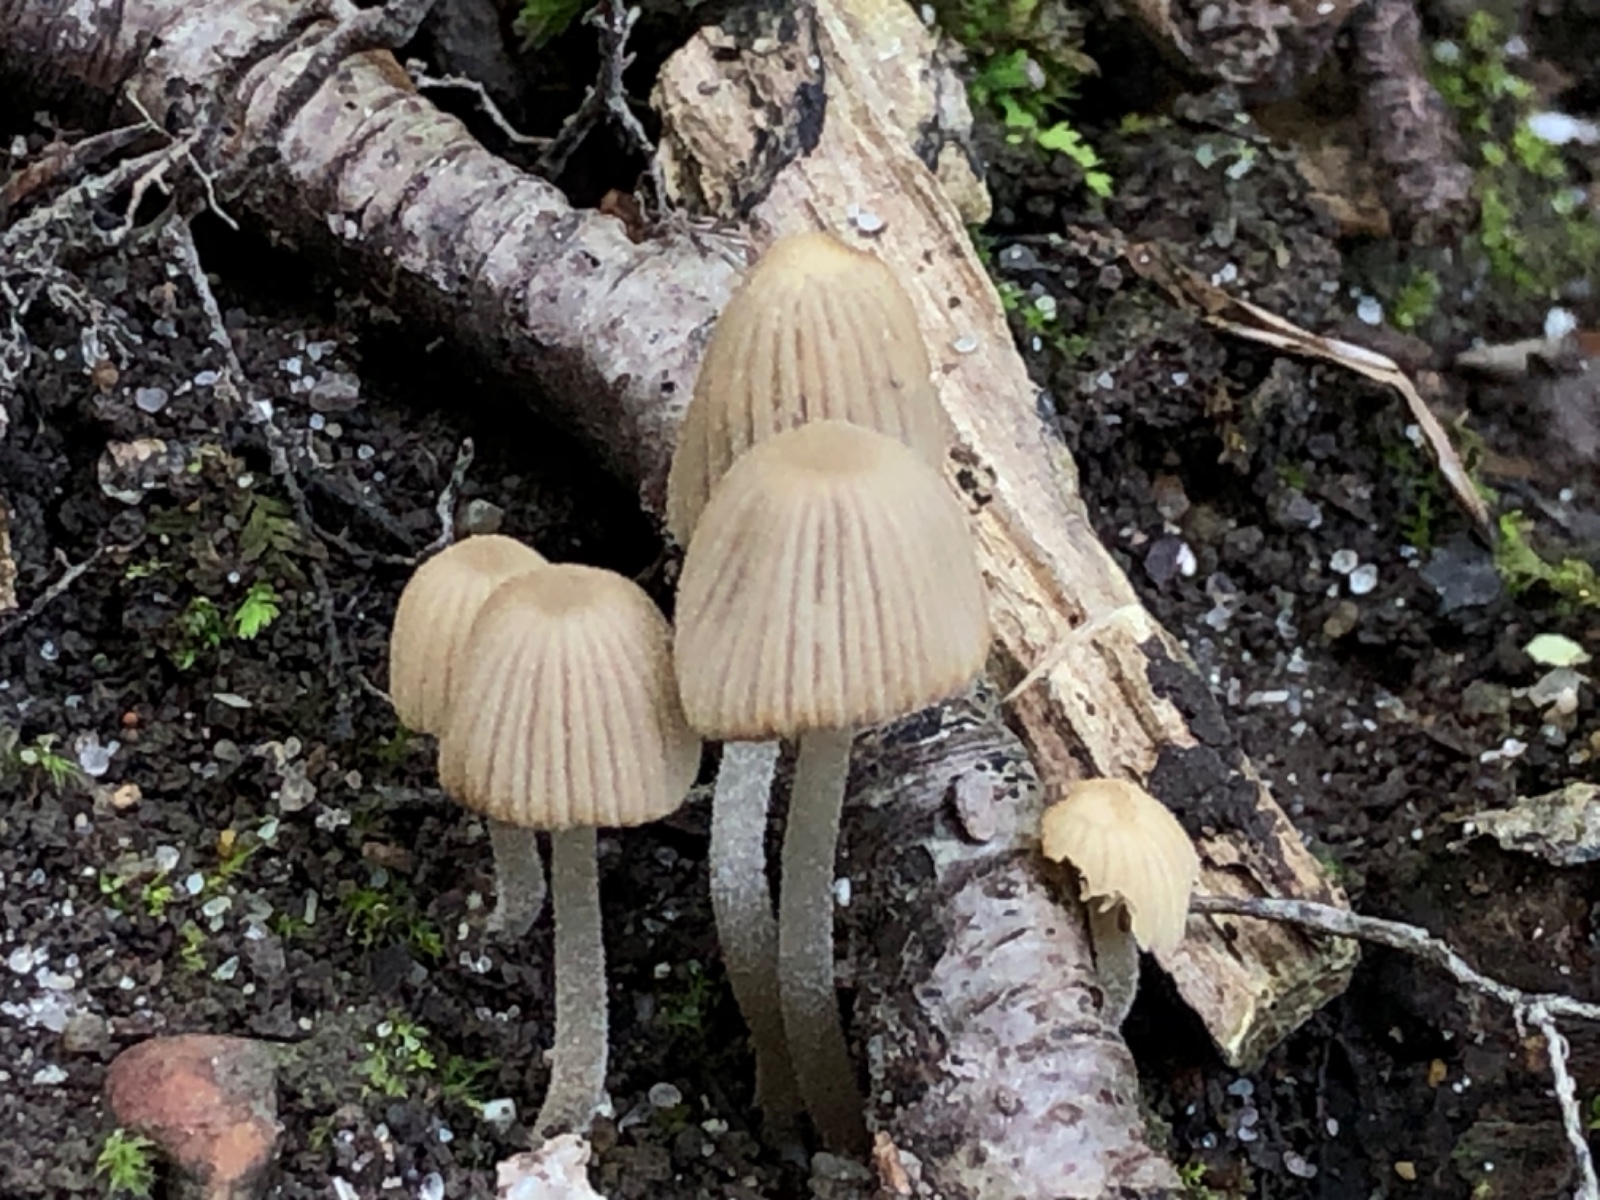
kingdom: Fungi
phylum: Basidiomycota
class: Agaricomycetes
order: Agaricales
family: Psathyrellaceae
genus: Coprinellus
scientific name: Coprinellus disseminatus
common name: bredsået blækhat
